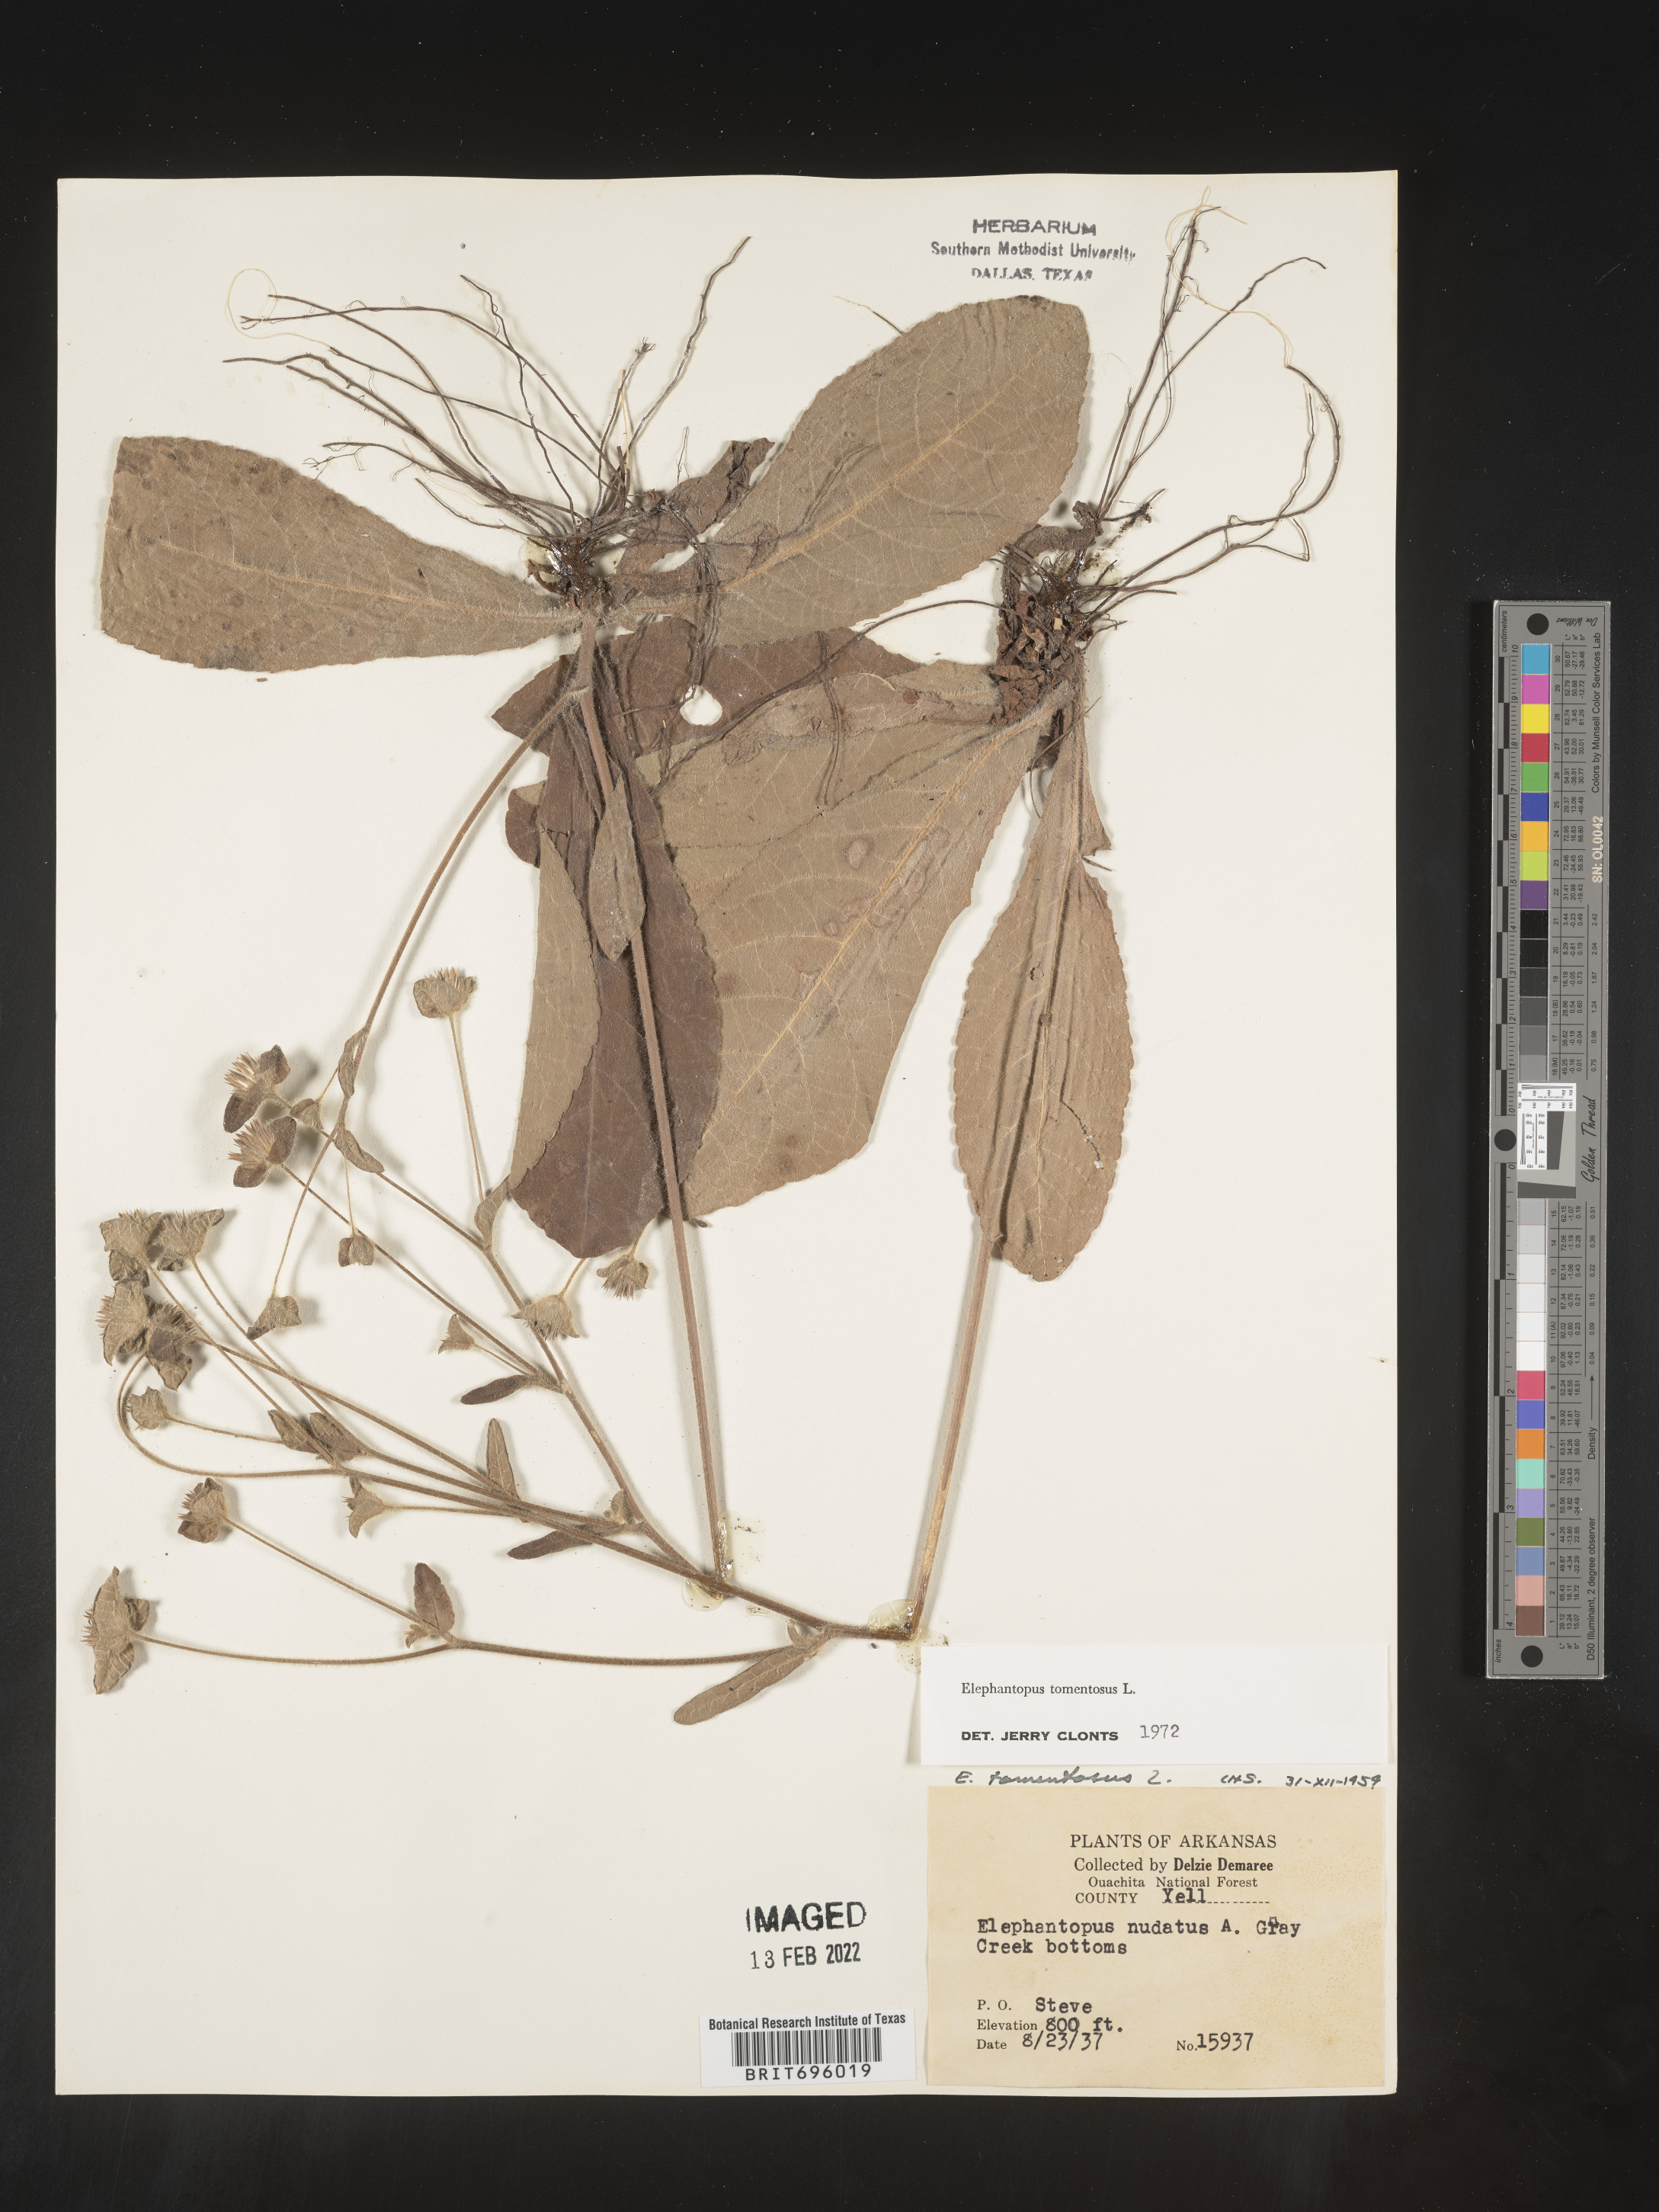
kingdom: Plantae
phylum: Tracheophyta
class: Magnoliopsida
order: Asterales
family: Asteraceae
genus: Elephantopus
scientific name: Elephantopus tomentosus
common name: Tobacco-weed
